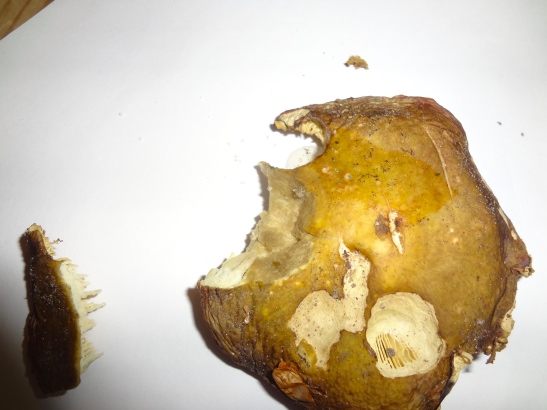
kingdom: Fungi
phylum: Basidiomycota
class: Agaricomycetes
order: Russulales
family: Russulaceae
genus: Russula
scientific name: Russula
